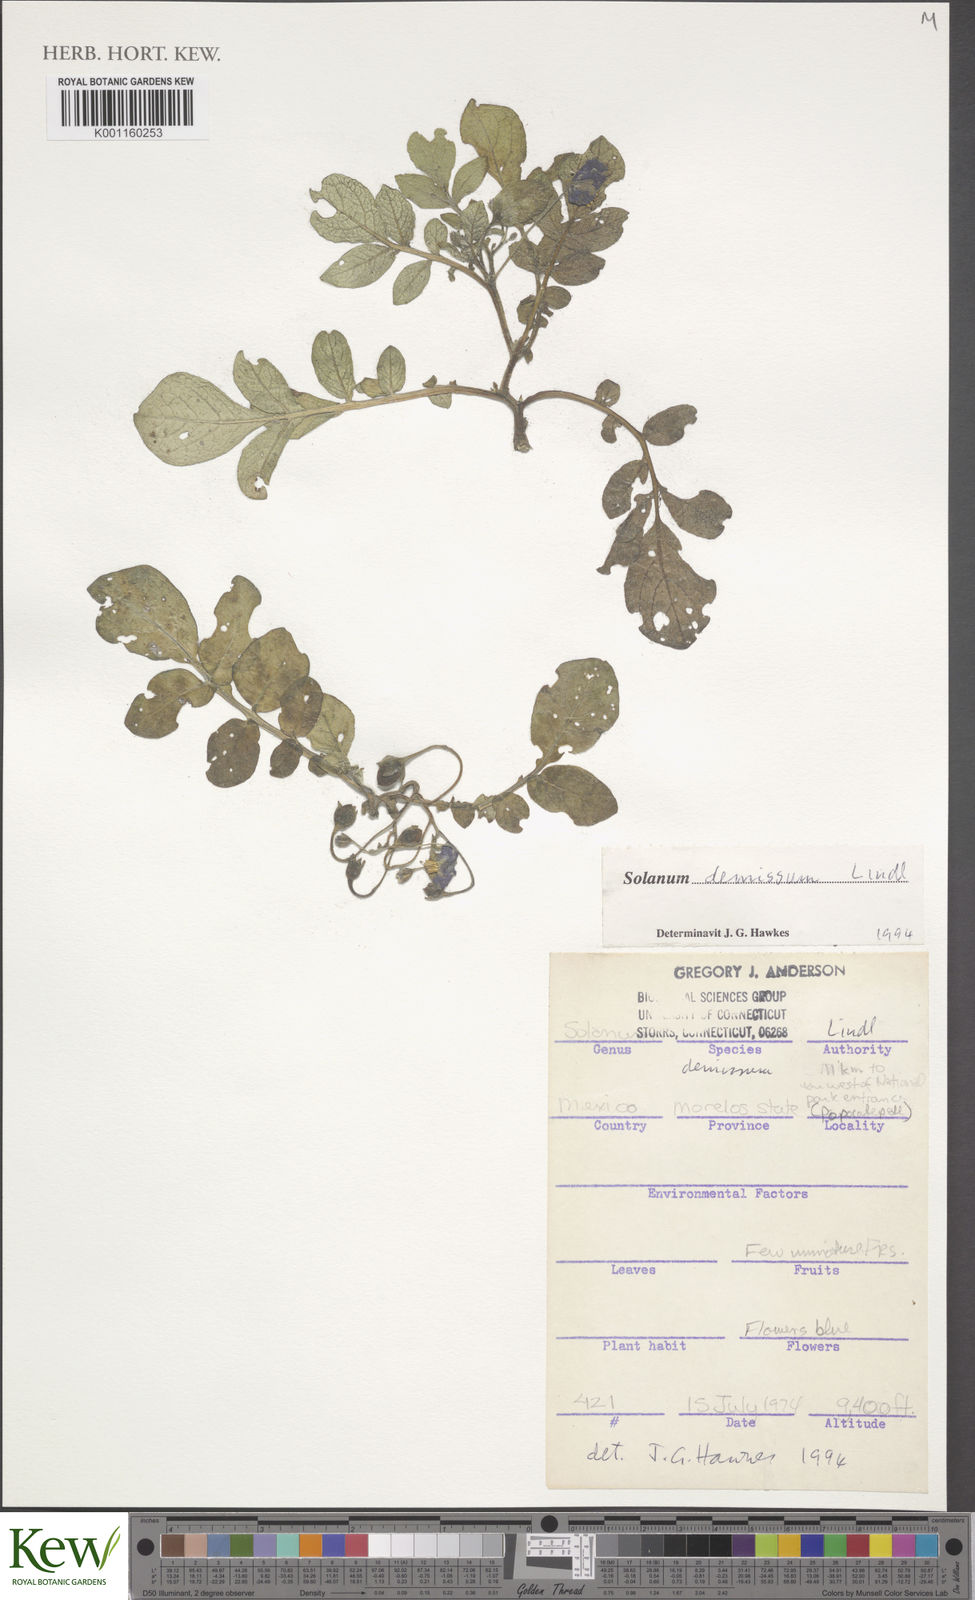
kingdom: Plantae
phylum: Tracheophyta
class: Magnoliopsida
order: Solanales
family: Solanaceae
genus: Solanum
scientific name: Solanum demissum
